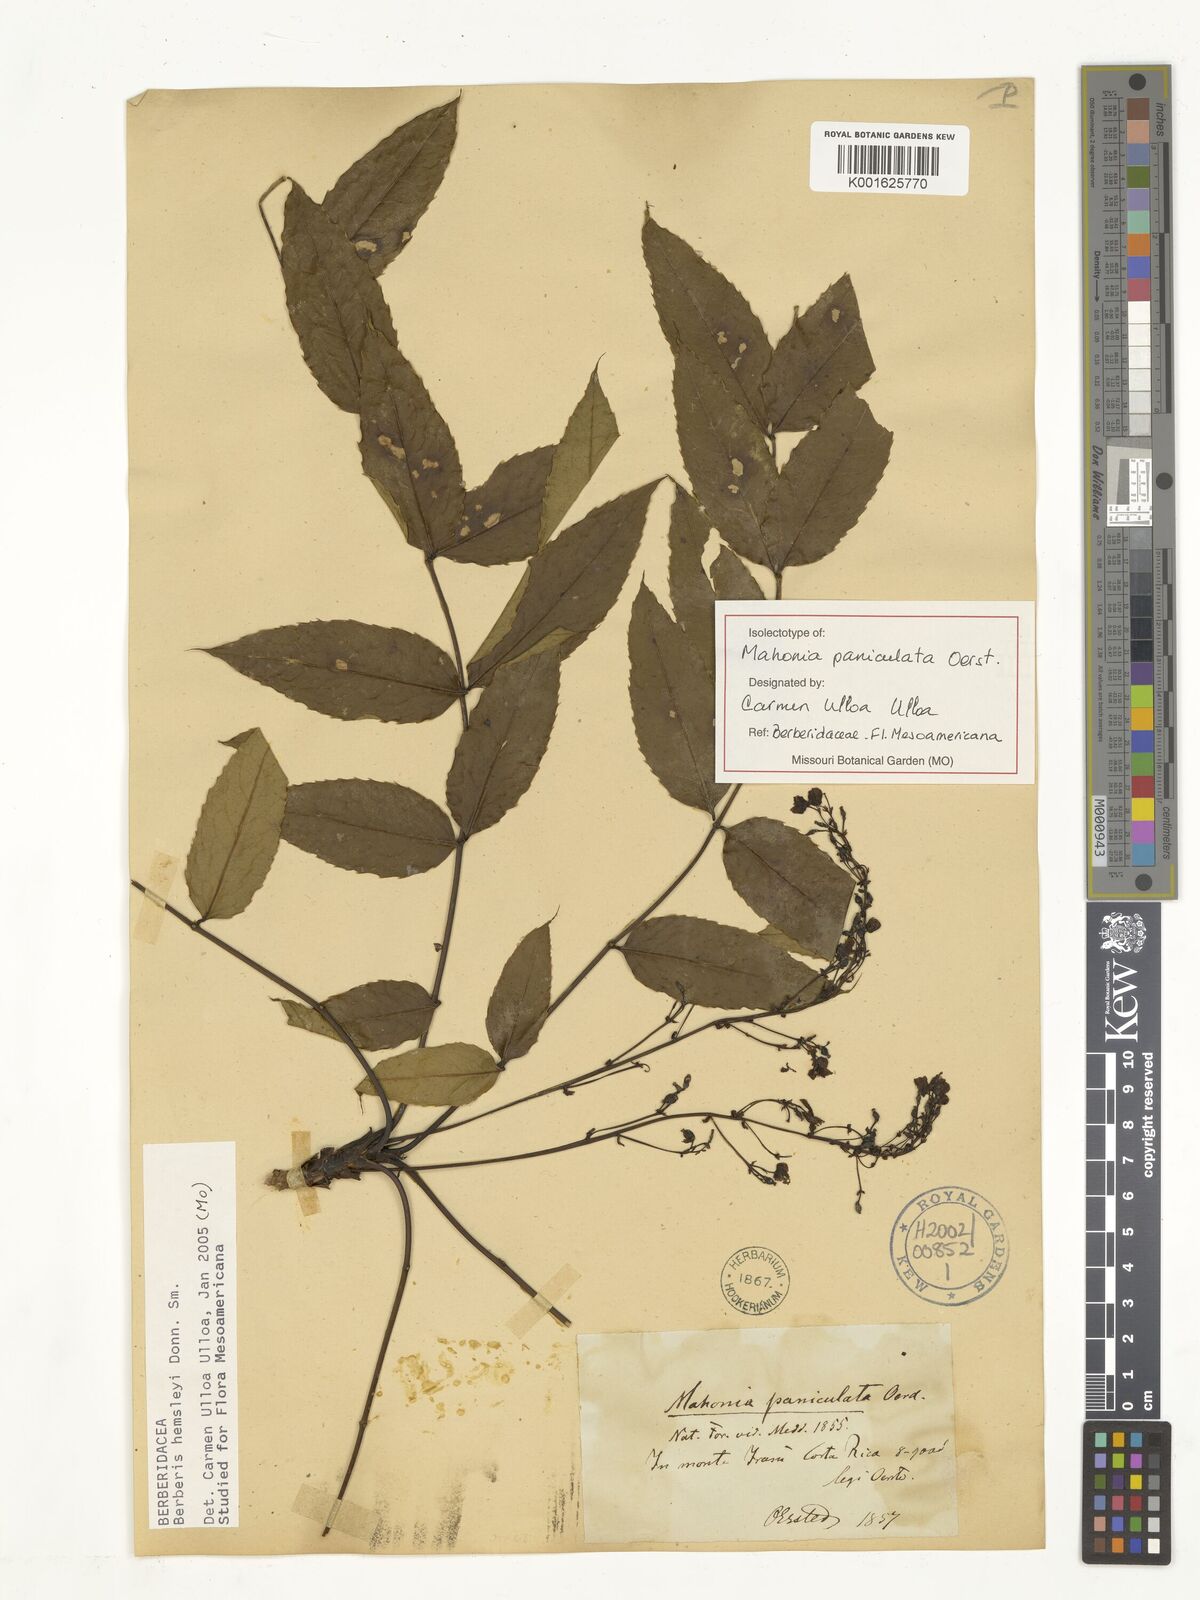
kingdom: Plantae
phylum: Tracheophyta
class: Magnoliopsida
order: Ranunculales
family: Berberidaceae
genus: Berberis
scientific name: Berberis hemsleyi
